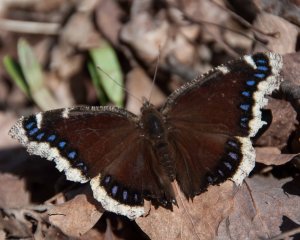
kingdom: Animalia
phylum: Arthropoda
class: Insecta
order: Lepidoptera
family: Nymphalidae
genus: Nymphalis
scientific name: Nymphalis antiopa
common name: Mourning Cloak
